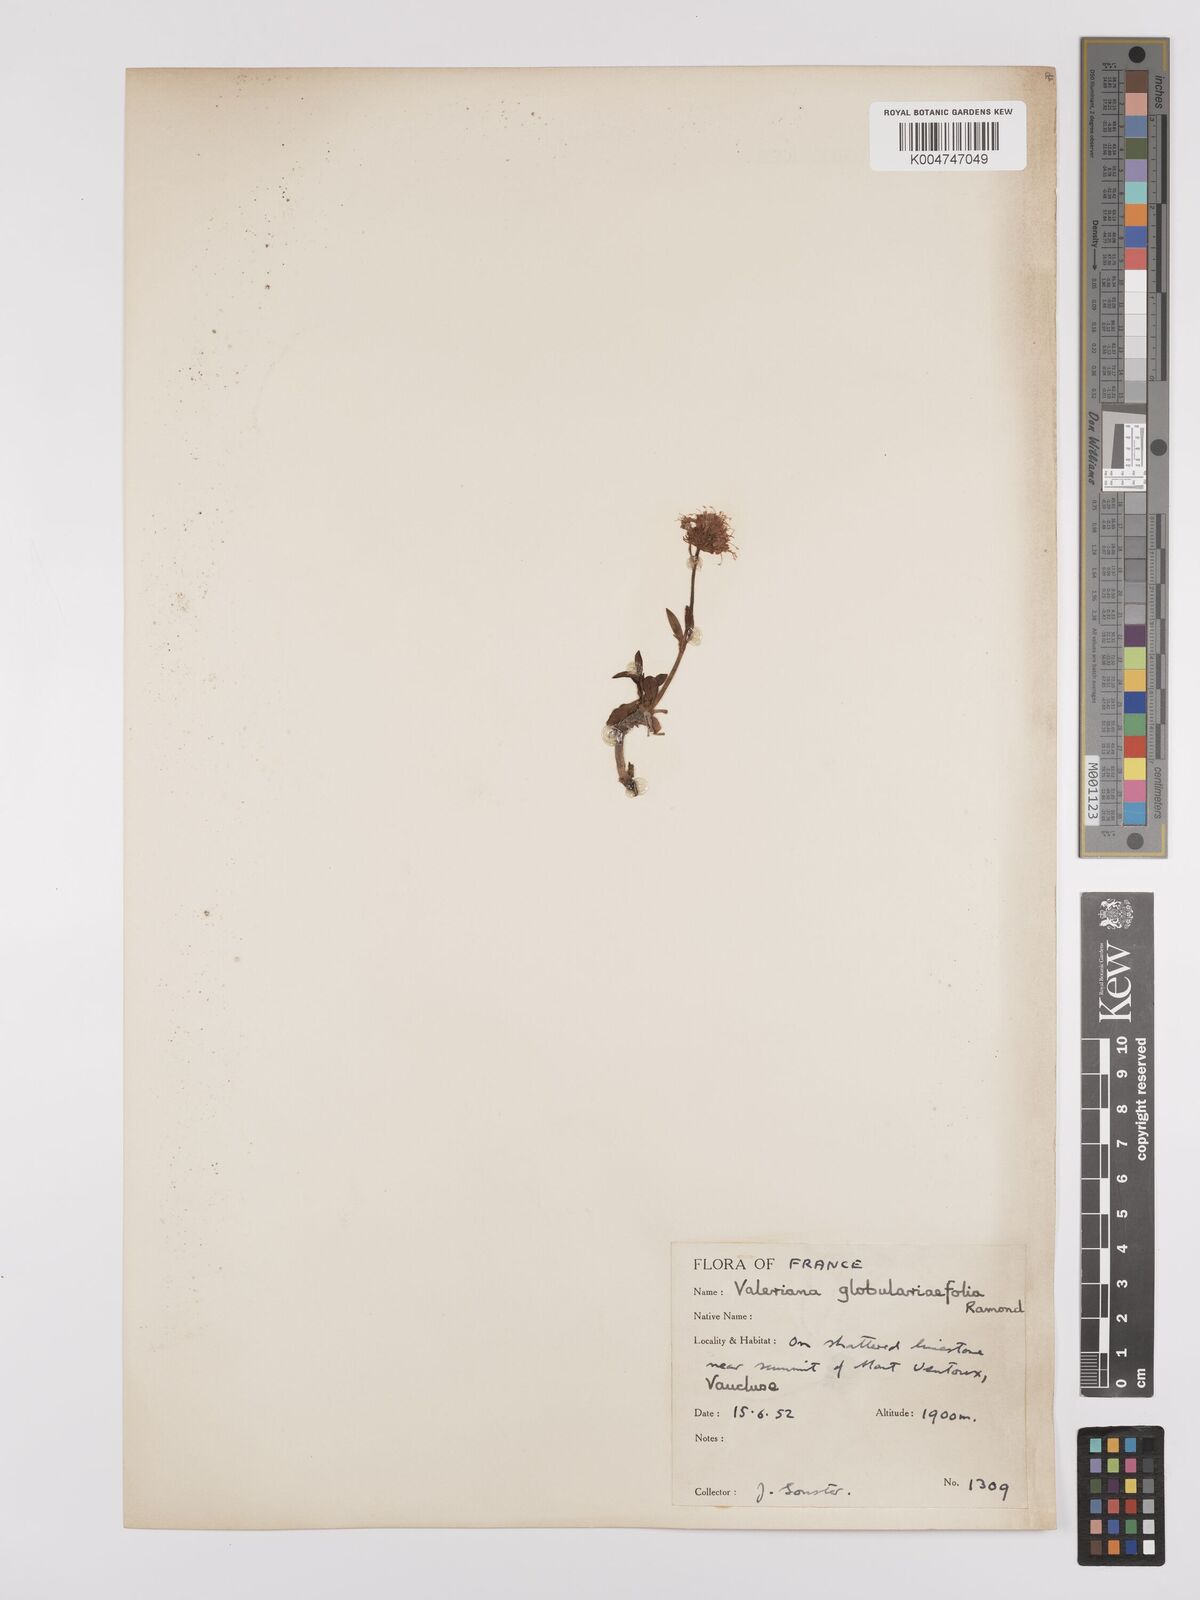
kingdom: Plantae
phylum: Tracheophyta
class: Magnoliopsida
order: Dipsacales
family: Caprifoliaceae
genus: Valeriana
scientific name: Valeriana apula
